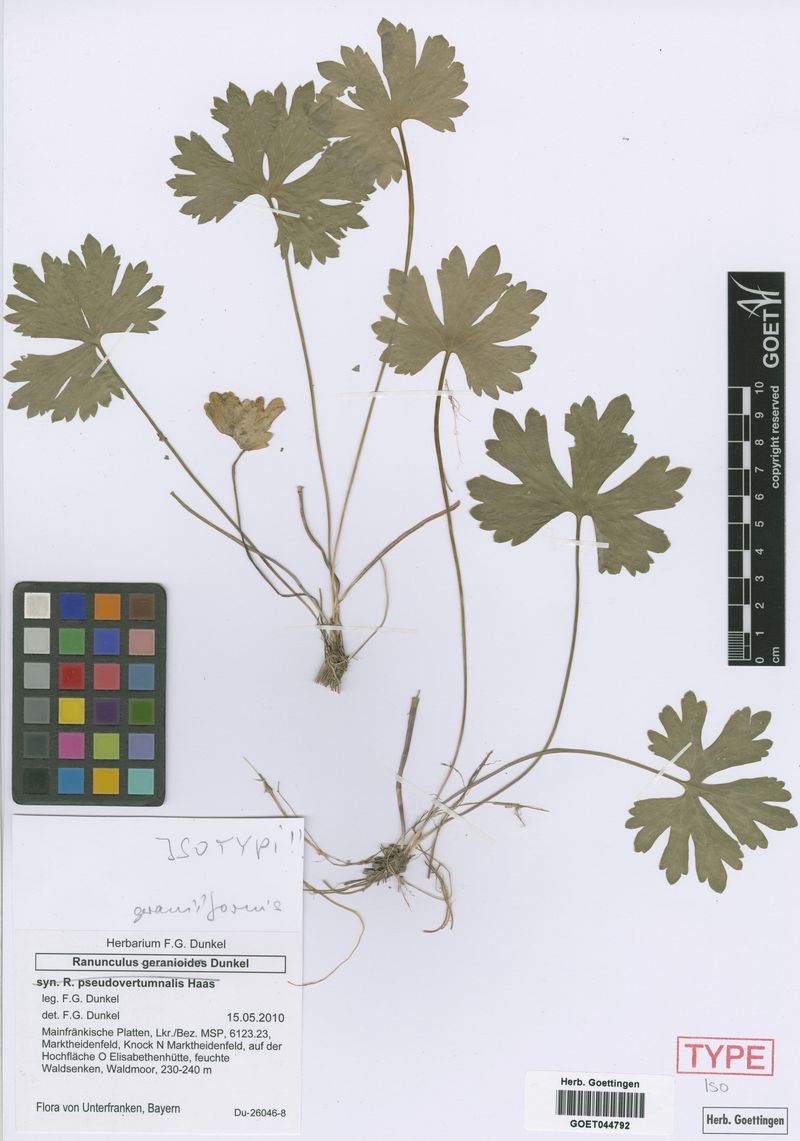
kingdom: Plantae
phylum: Tracheophyta
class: Magnoliopsida
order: Ranunculales
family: Ranunculaceae
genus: Ranunculus
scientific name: Ranunculus geraniiformis
